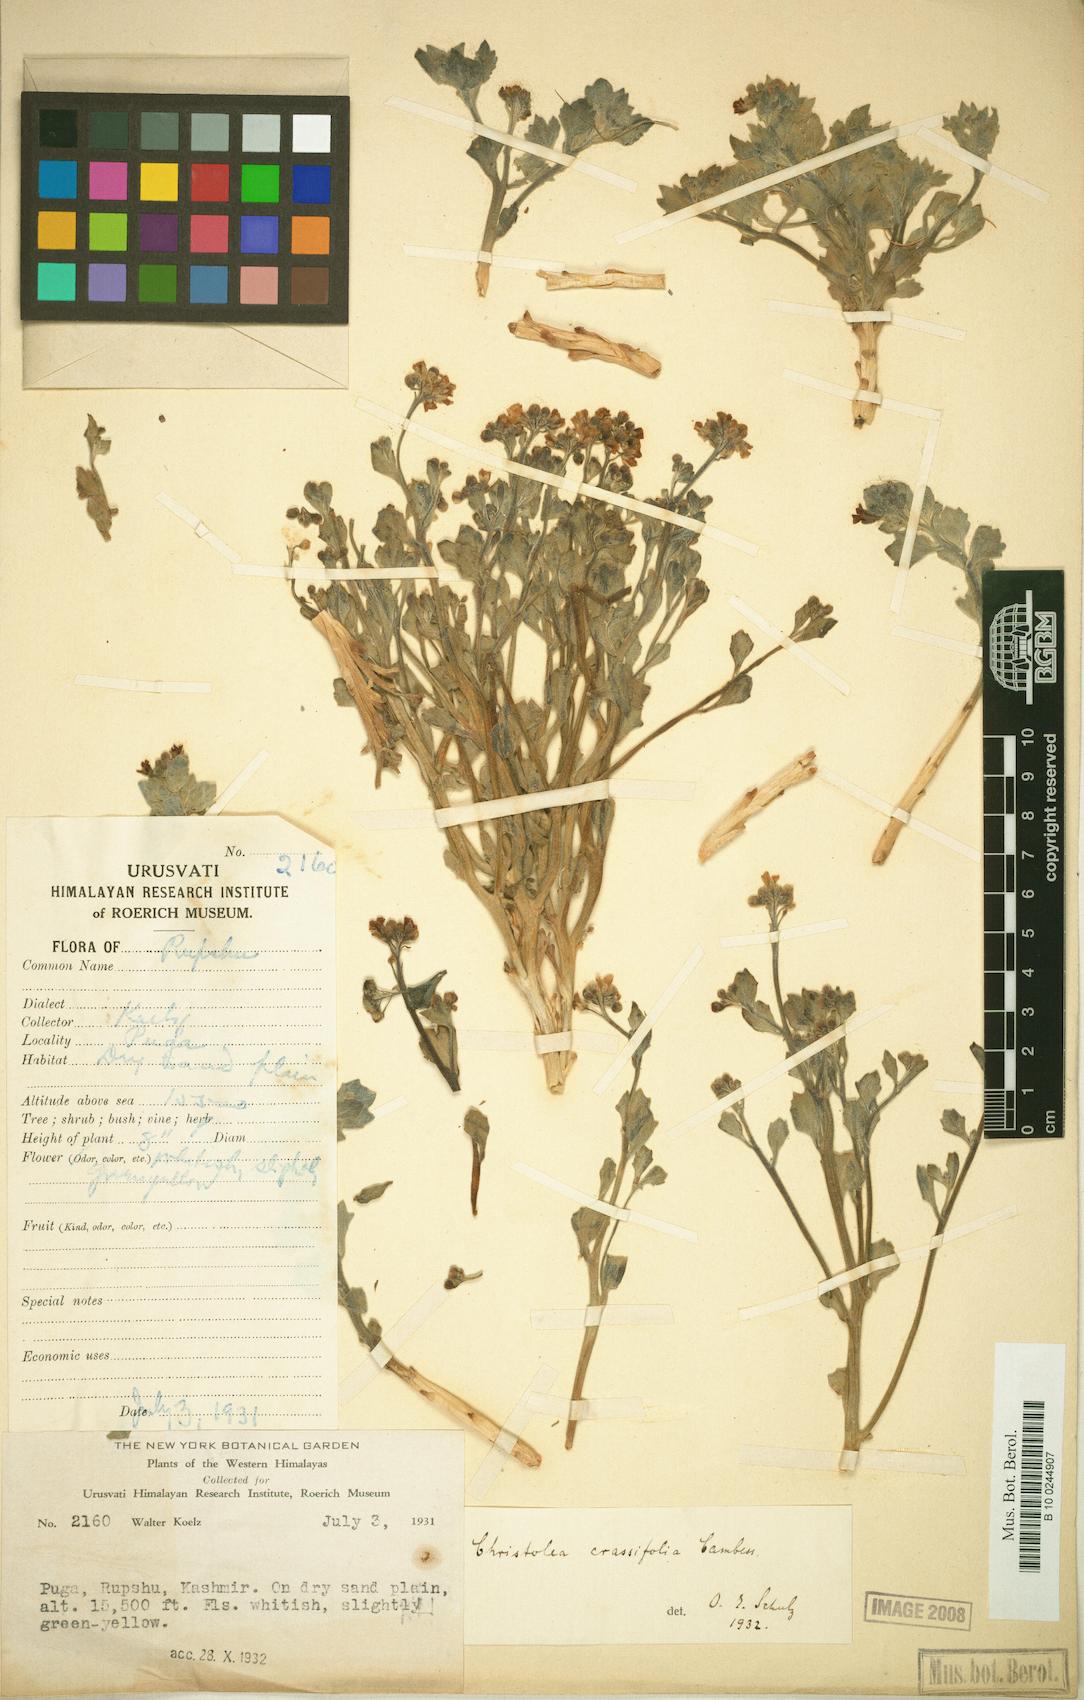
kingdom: Plantae
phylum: Tracheophyta
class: Magnoliopsida
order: Brassicales
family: Brassicaceae
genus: Christolea
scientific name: Christolea crassifolia
